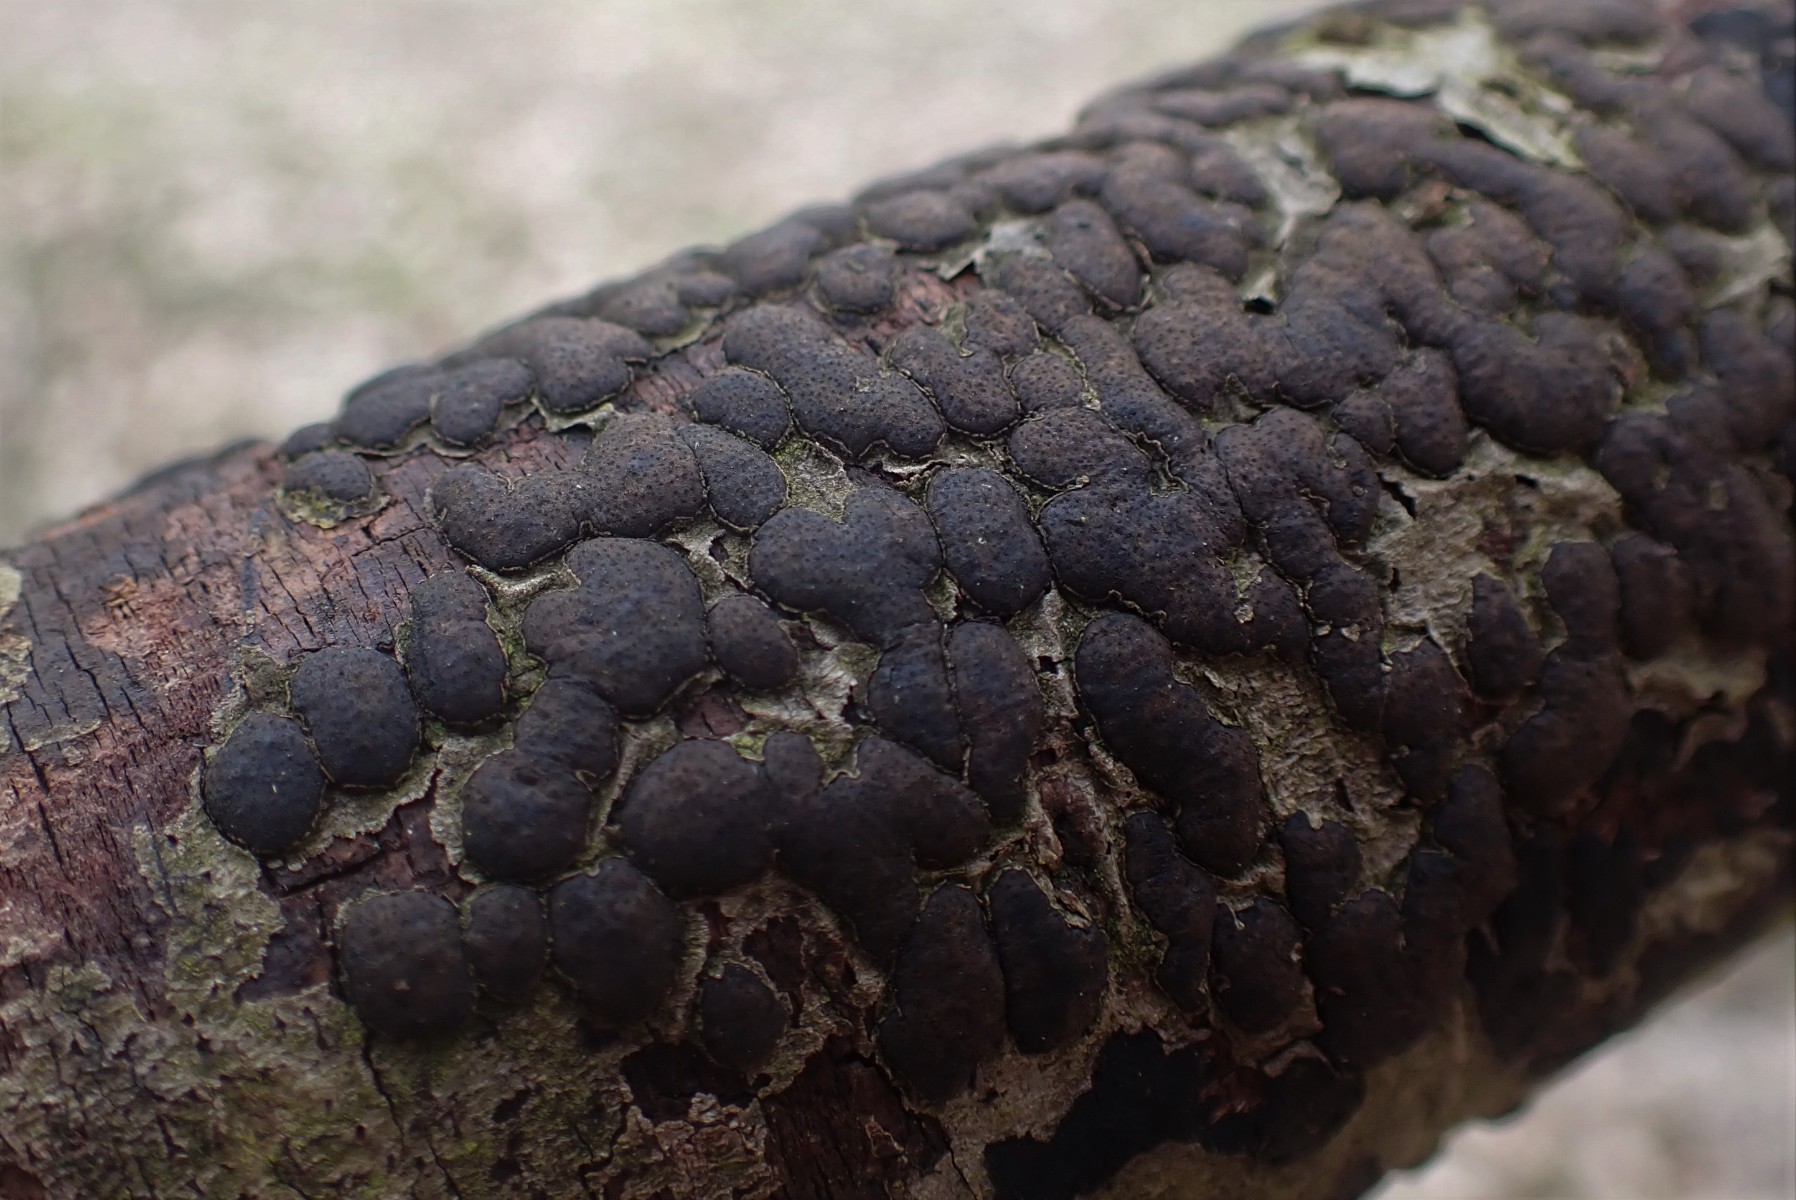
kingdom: Fungi
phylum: Ascomycota
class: Sordariomycetes
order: Xylariales
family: Diatrypaceae
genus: Diatrype
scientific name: Diatrype bullata
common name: pile-kulskorpe
